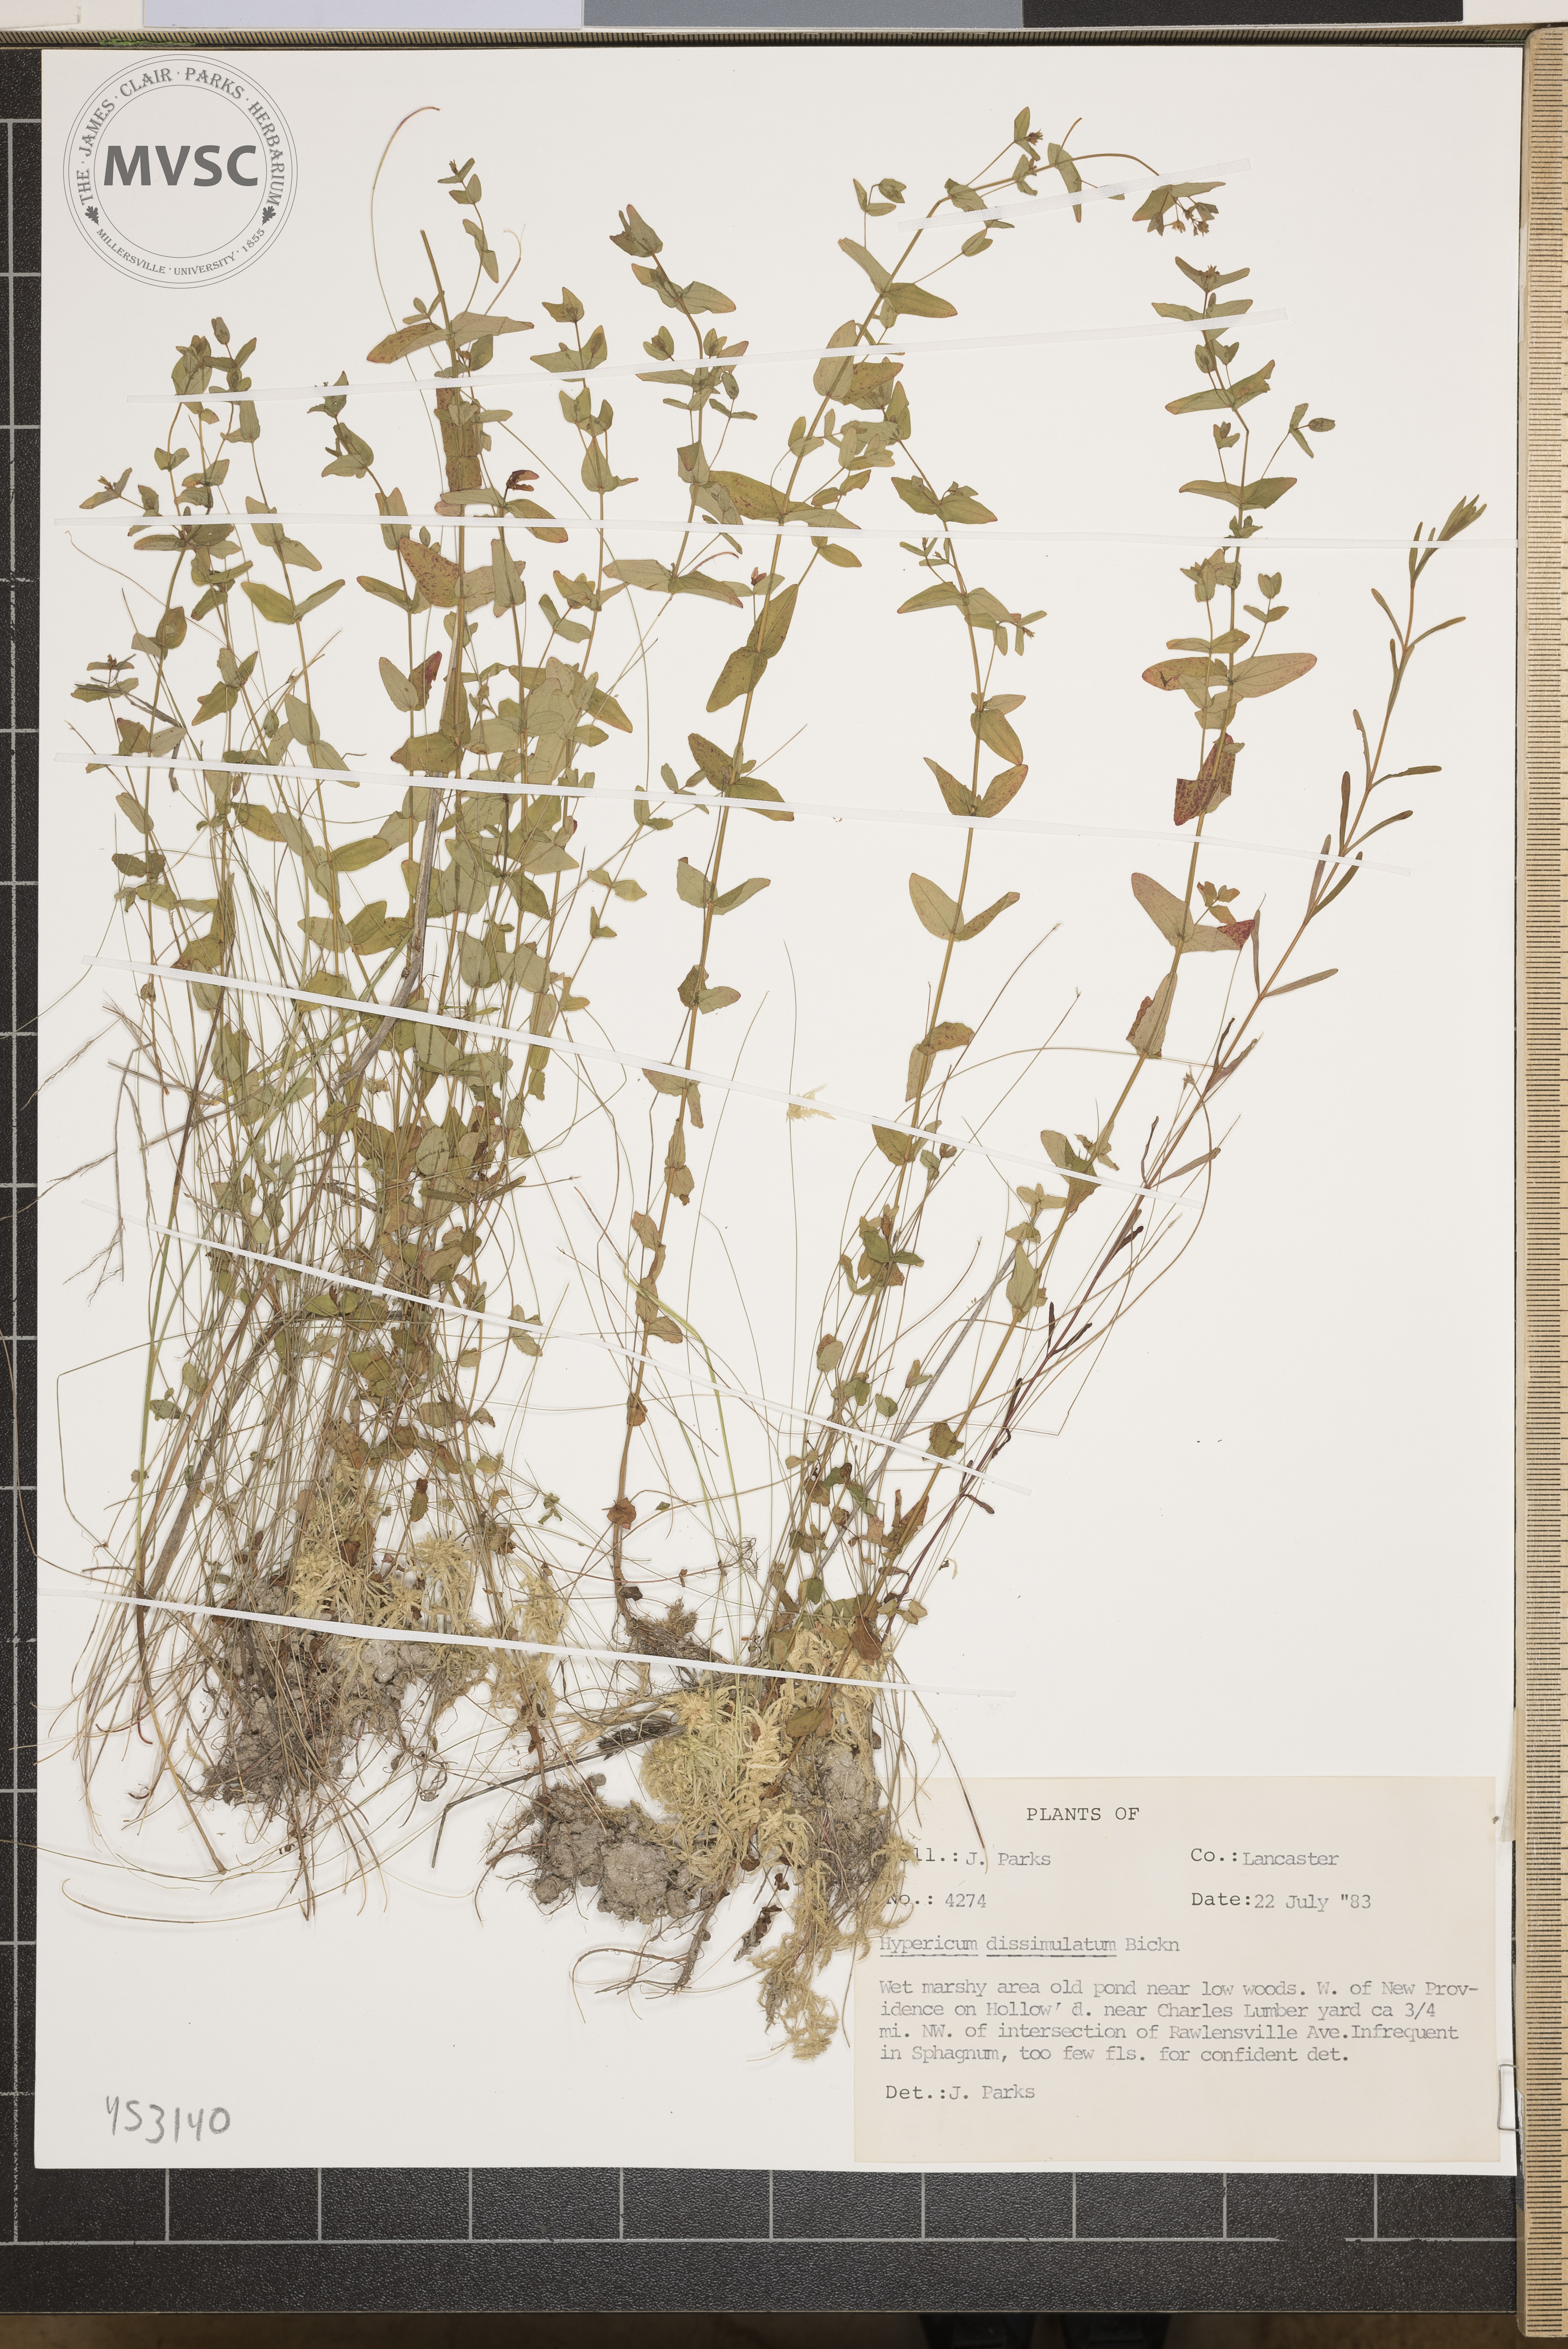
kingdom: Plantae
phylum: Tracheophyta
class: Magnoliopsida
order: Malpighiales
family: Hypericaceae
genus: Hypericum
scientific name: Hypericum dissimulatum
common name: Disguised st. john's-wort
